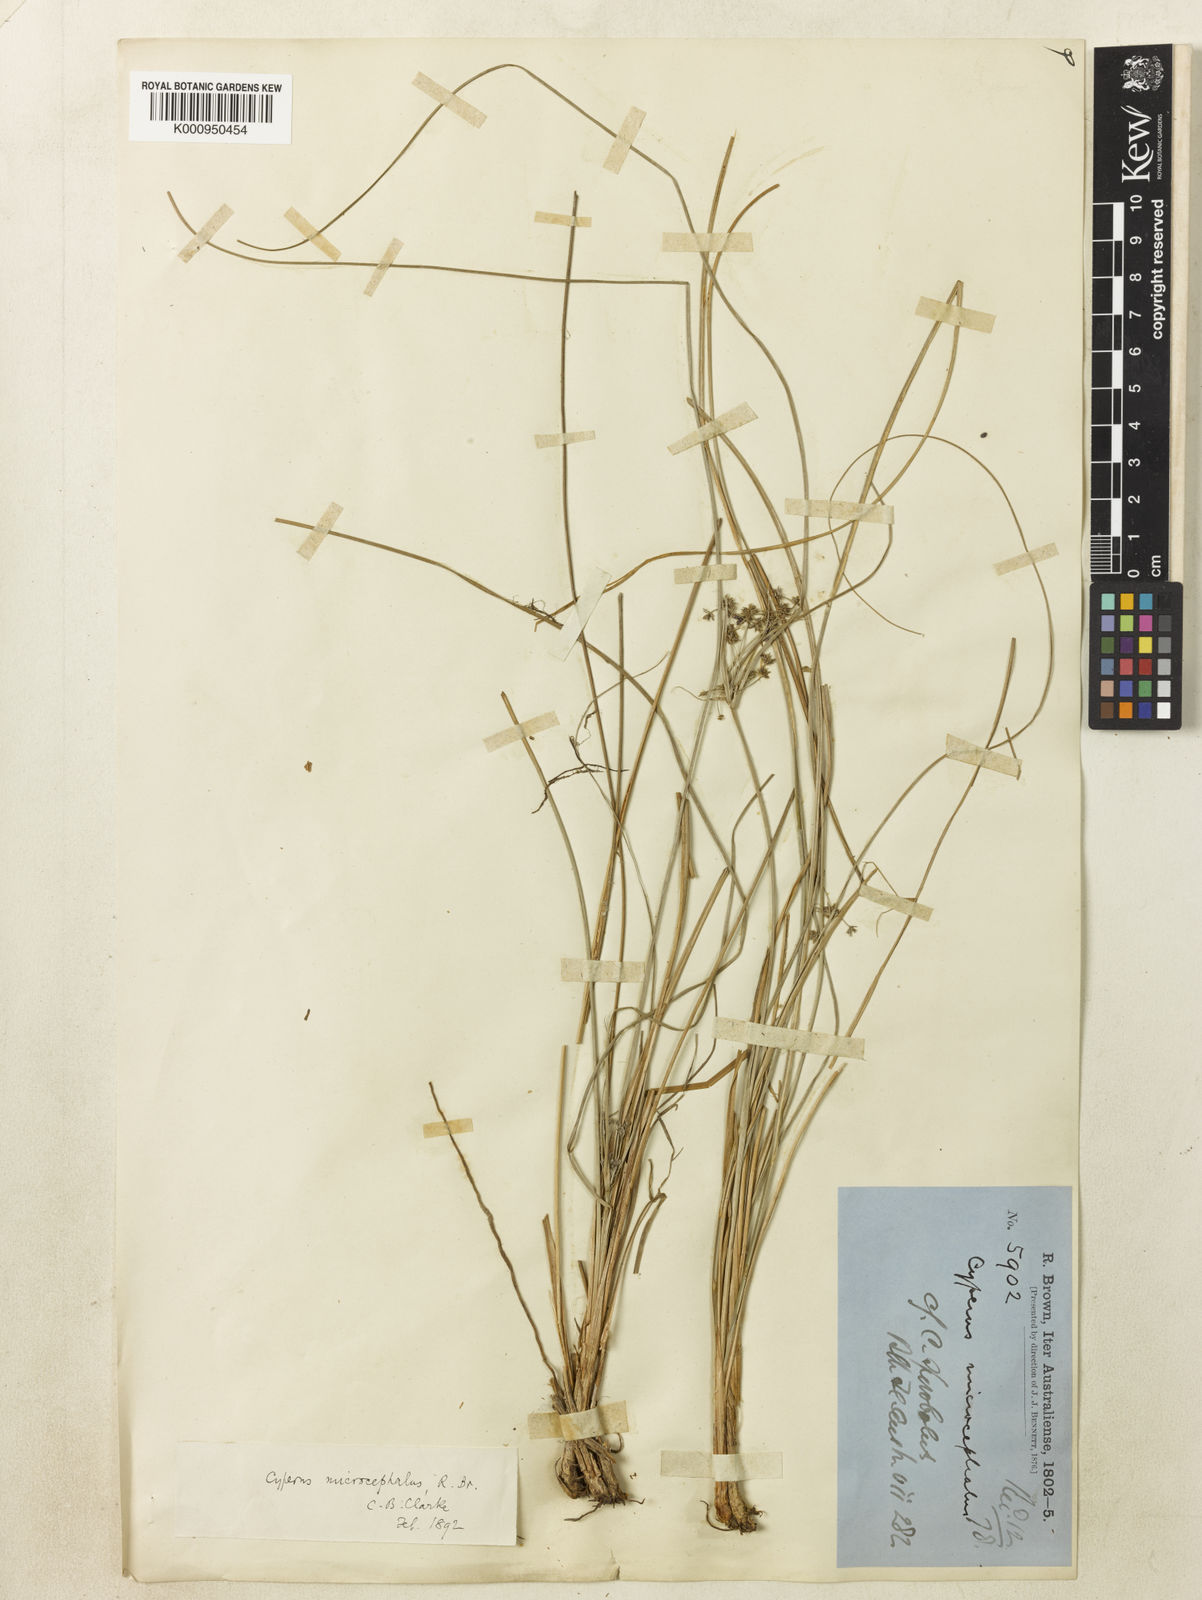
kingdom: Plantae
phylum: Tracheophyta
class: Liliopsida
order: Poales
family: Cyperaceae
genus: Cyperus
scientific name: Cyperus sporobolus
